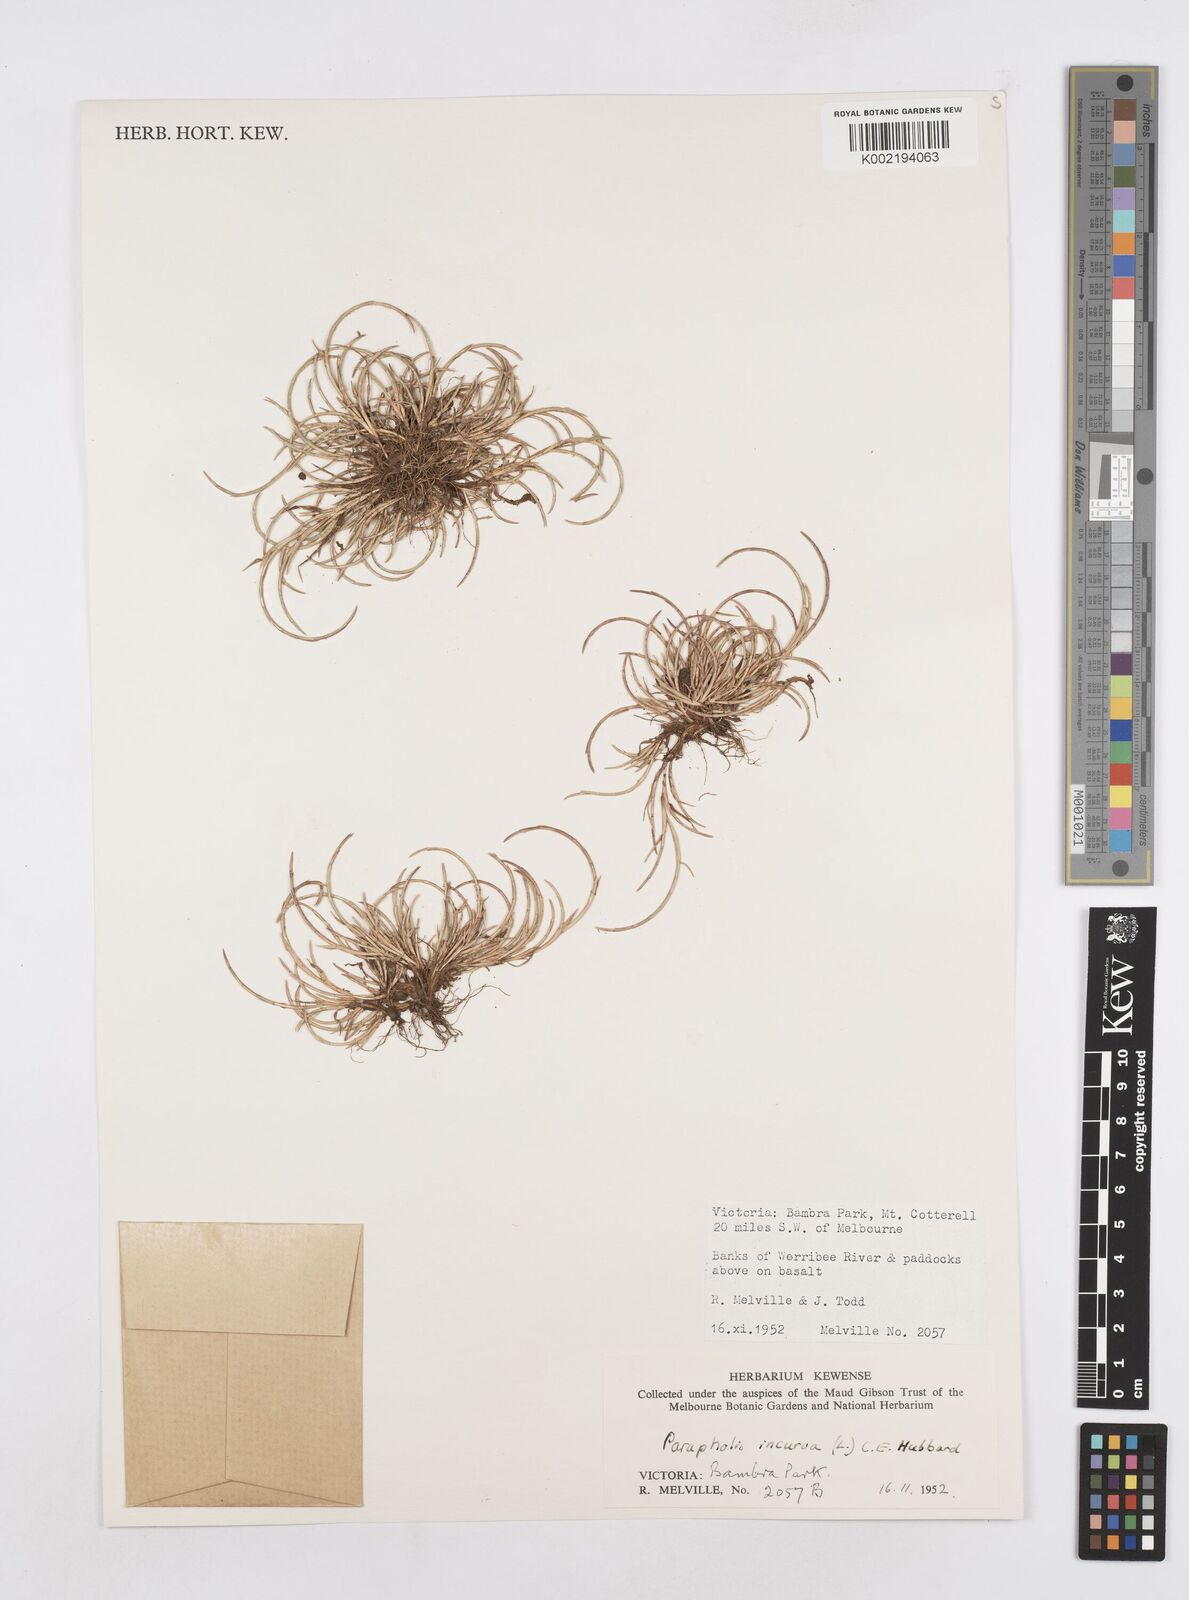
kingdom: Plantae
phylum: Tracheophyta
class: Liliopsida
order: Poales
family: Poaceae
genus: Parapholis
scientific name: Parapholis incurva
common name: Curved sicklegrass
